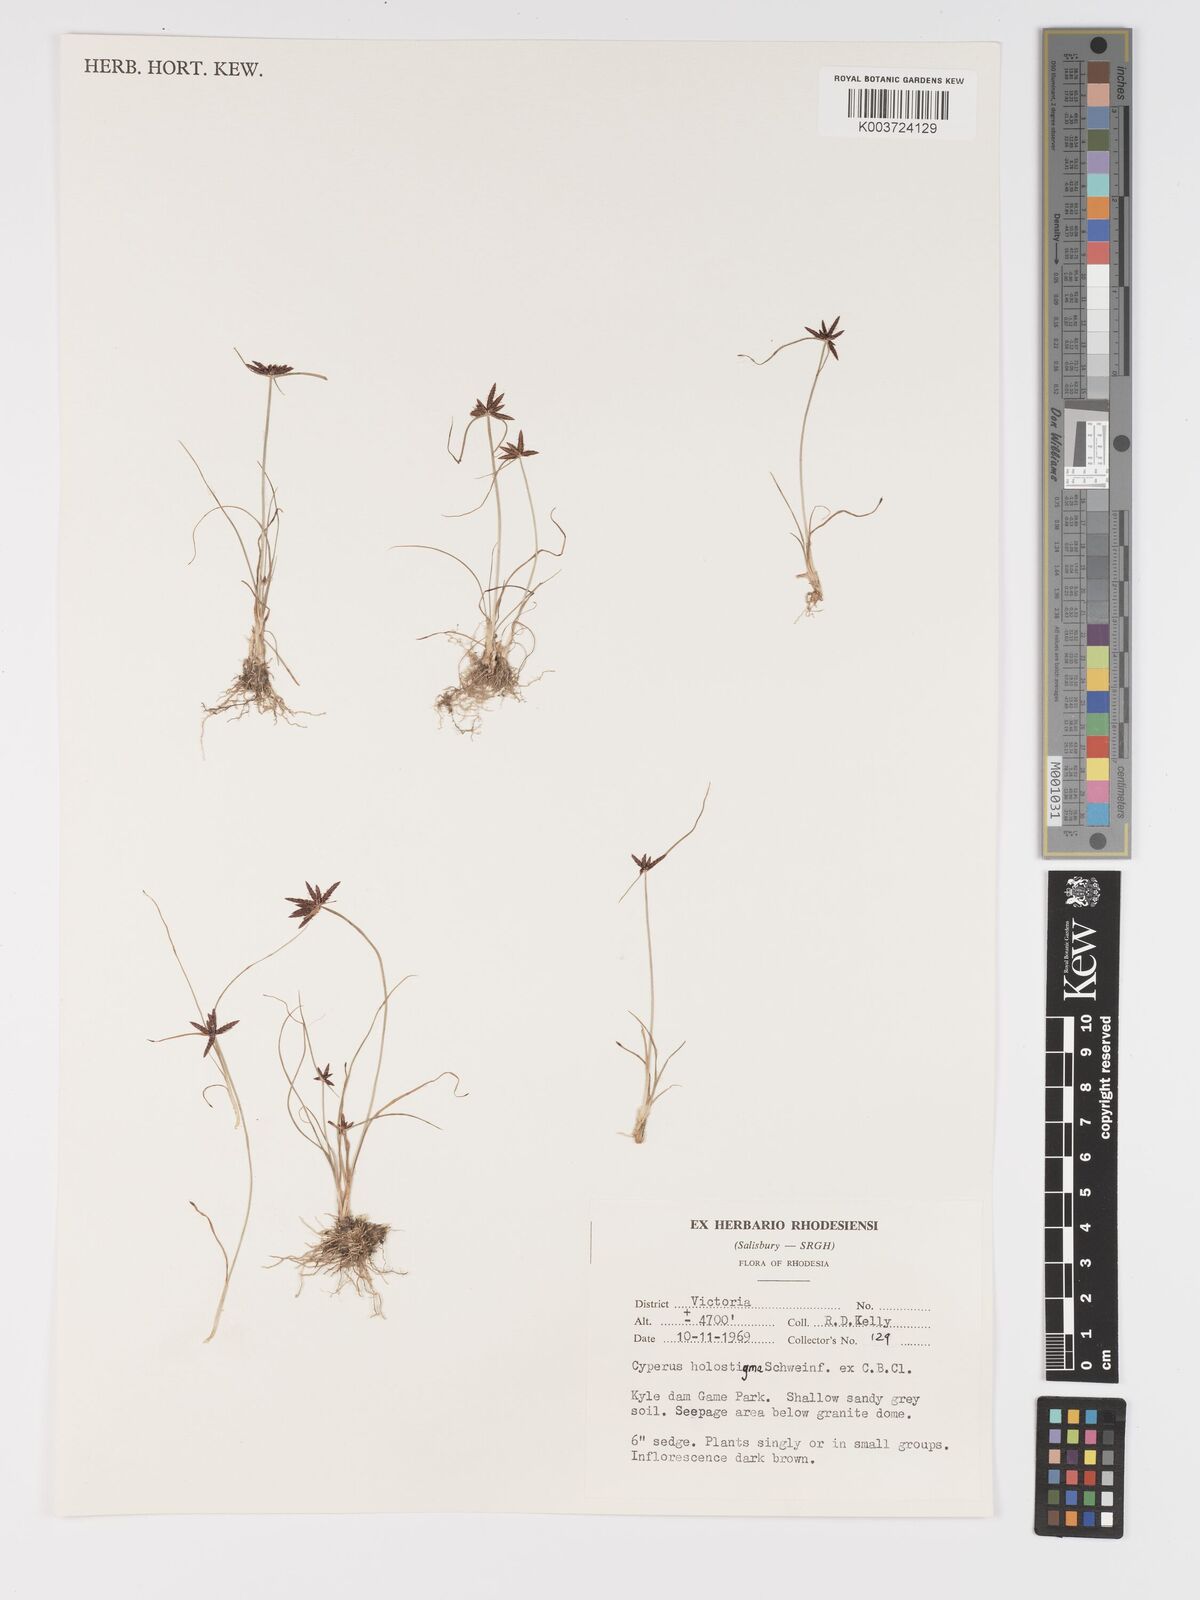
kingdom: Plantae
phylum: Tracheophyta
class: Liliopsida
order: Poales
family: Cyperaceae
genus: Cyperus
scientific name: Cyperus holostigma
